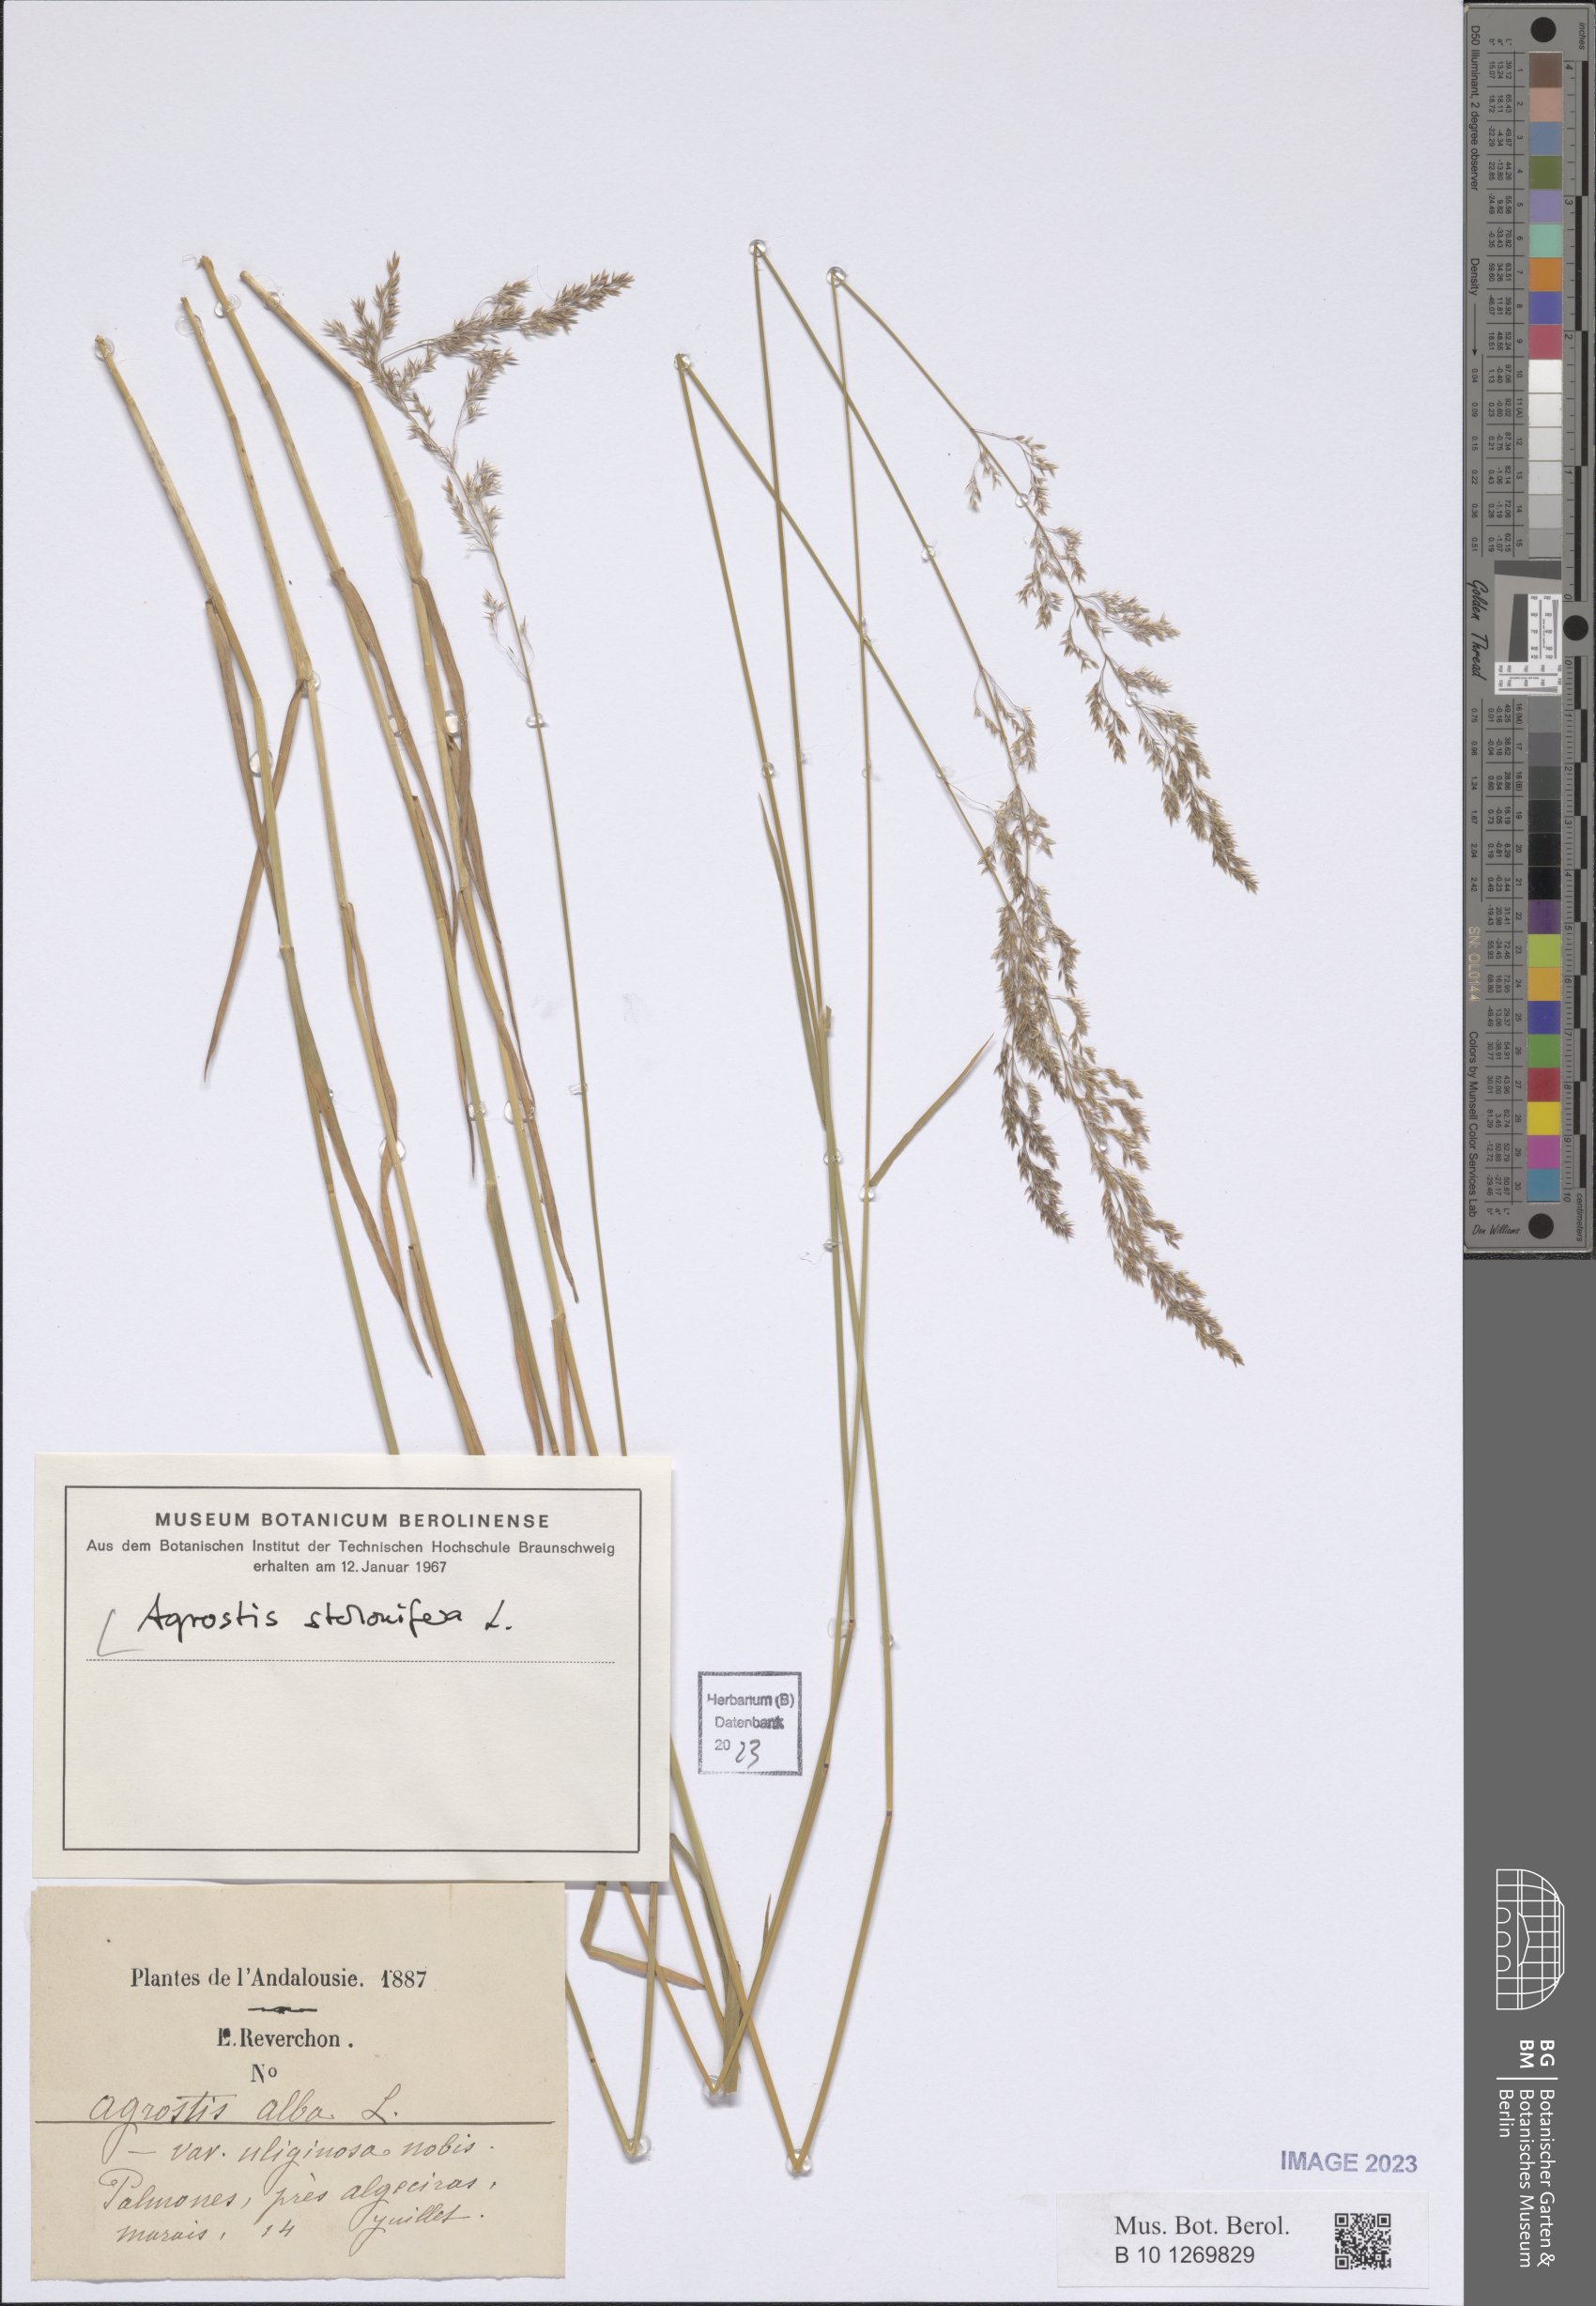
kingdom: Plantae
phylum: Tracheophyta
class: Liliopsida
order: Poales
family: Poaceae
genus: Agrostis
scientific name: Agrostis stolonifera
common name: Creeping bentgrass
